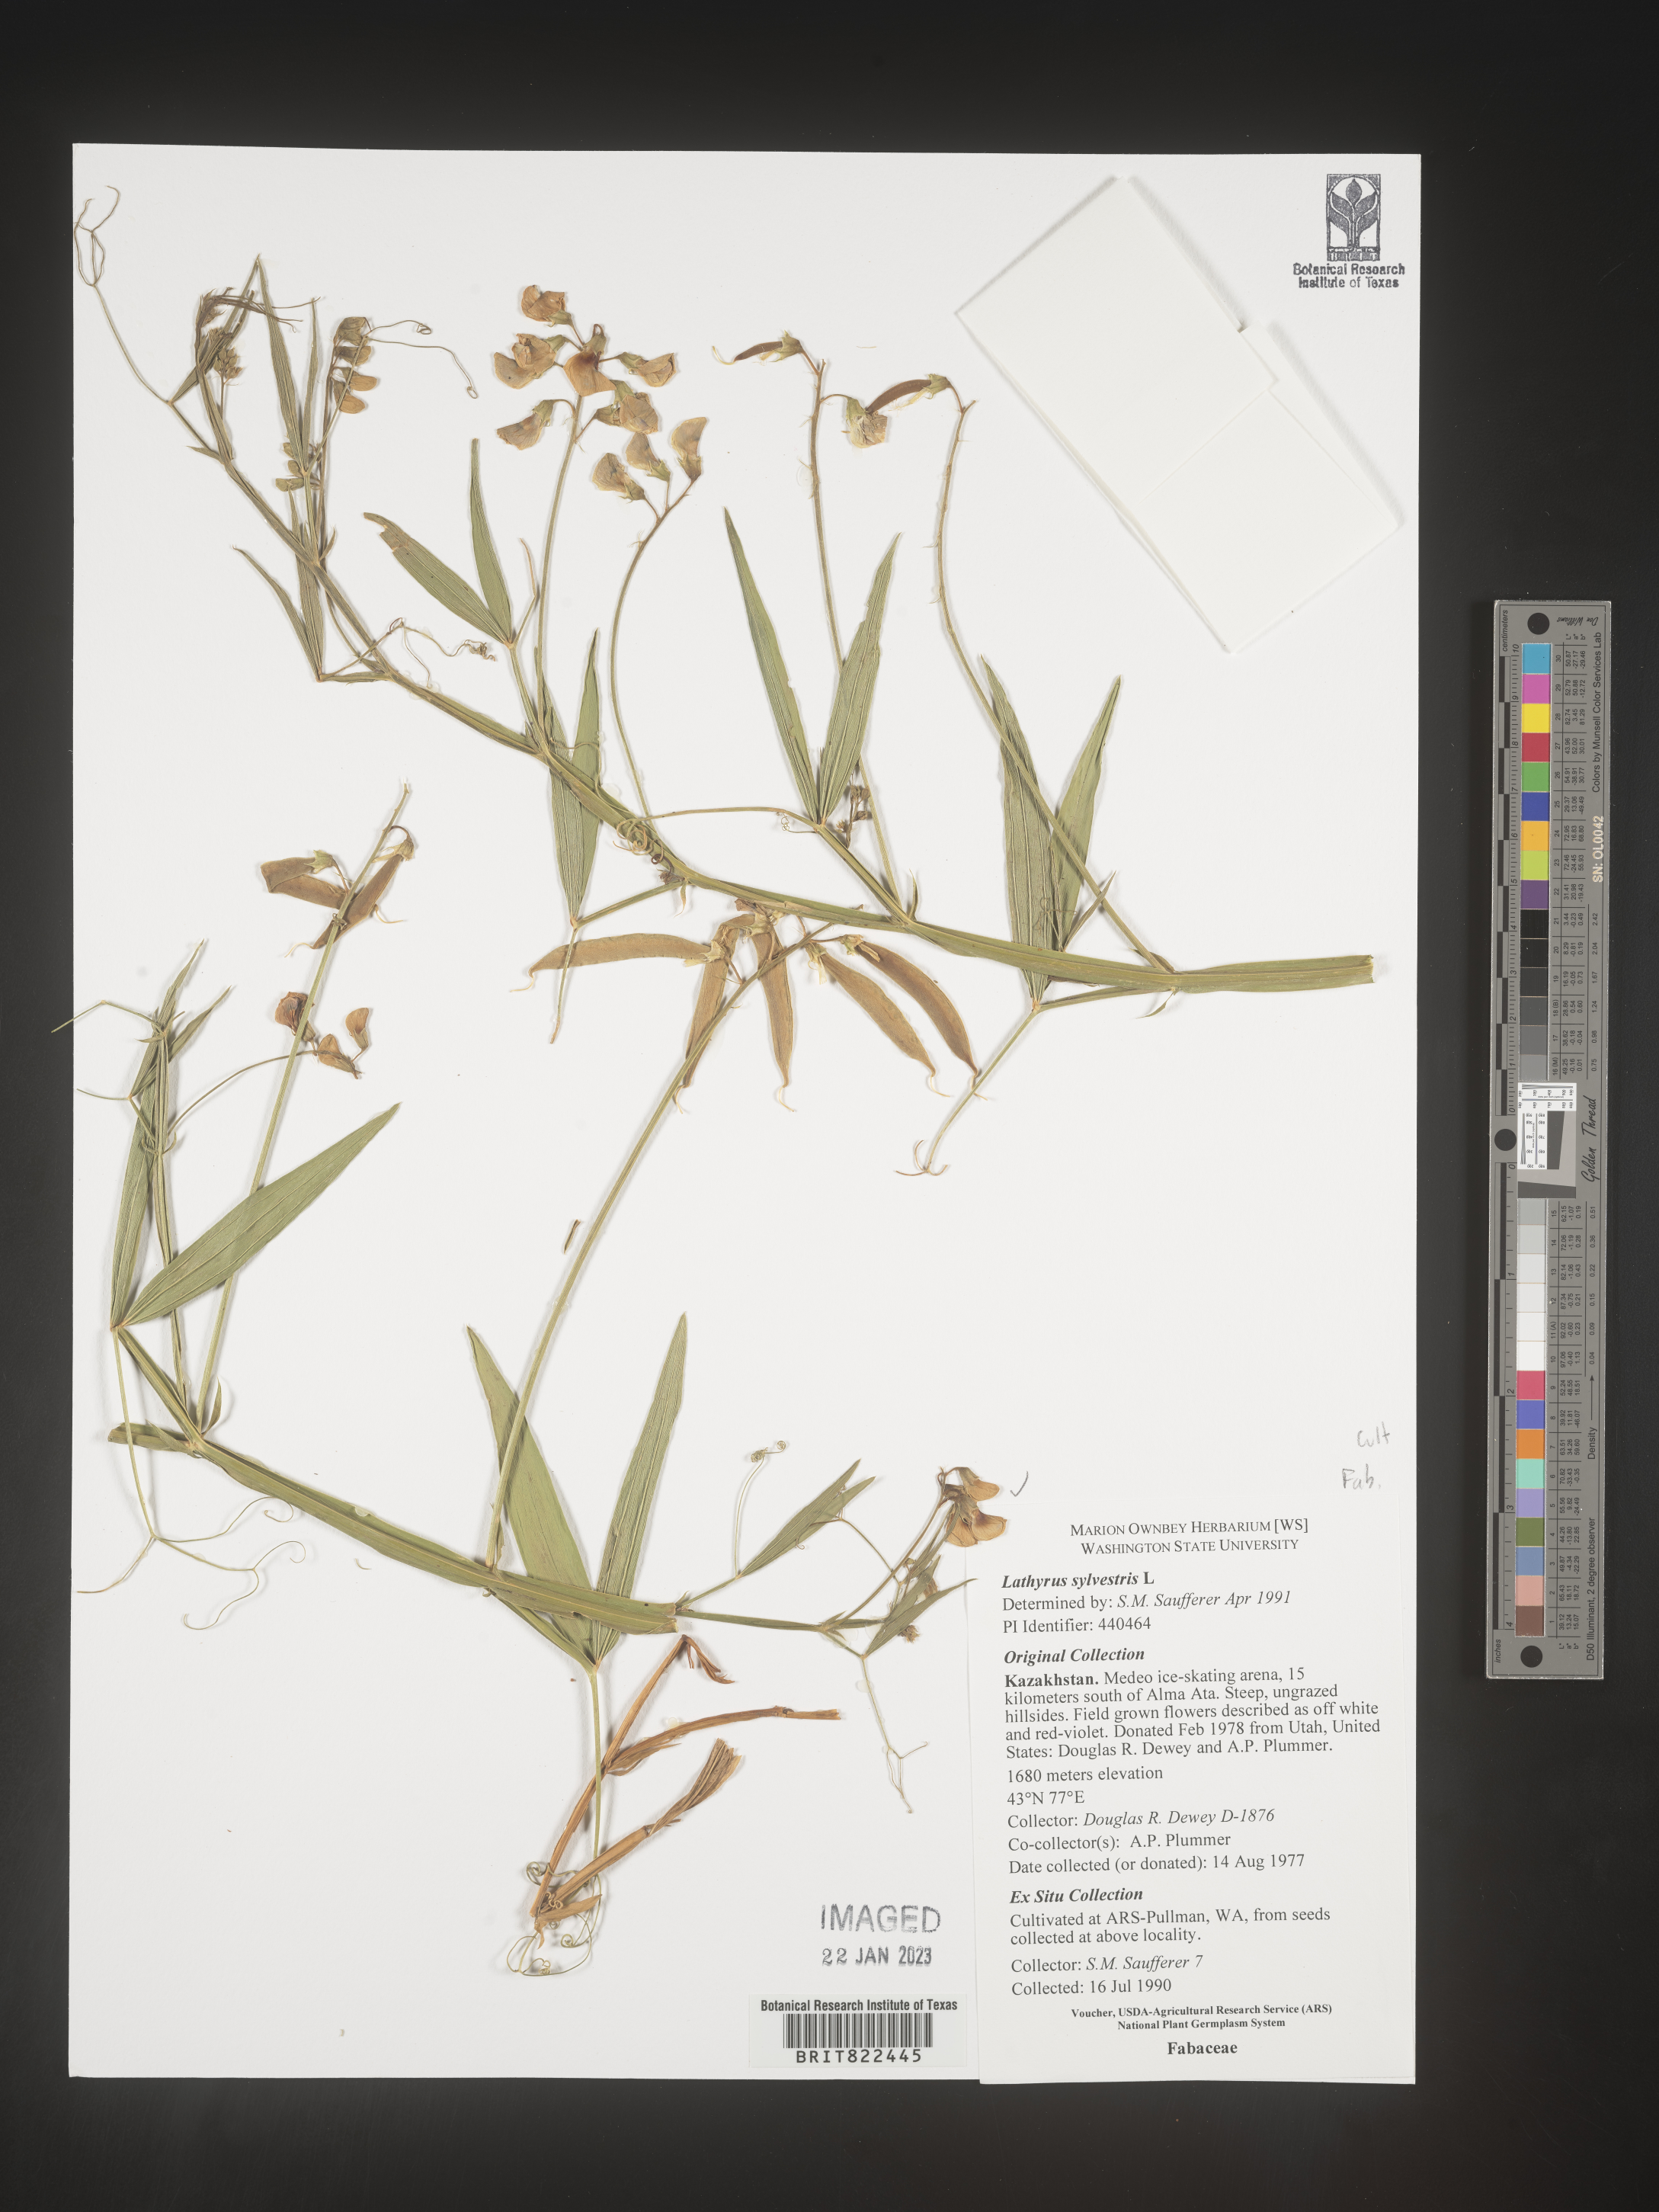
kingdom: Plantae
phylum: Tracheophyta
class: Magnoliopsida
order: Fabales
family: Fabaceae
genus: Lathyrus
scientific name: Lathyrus
